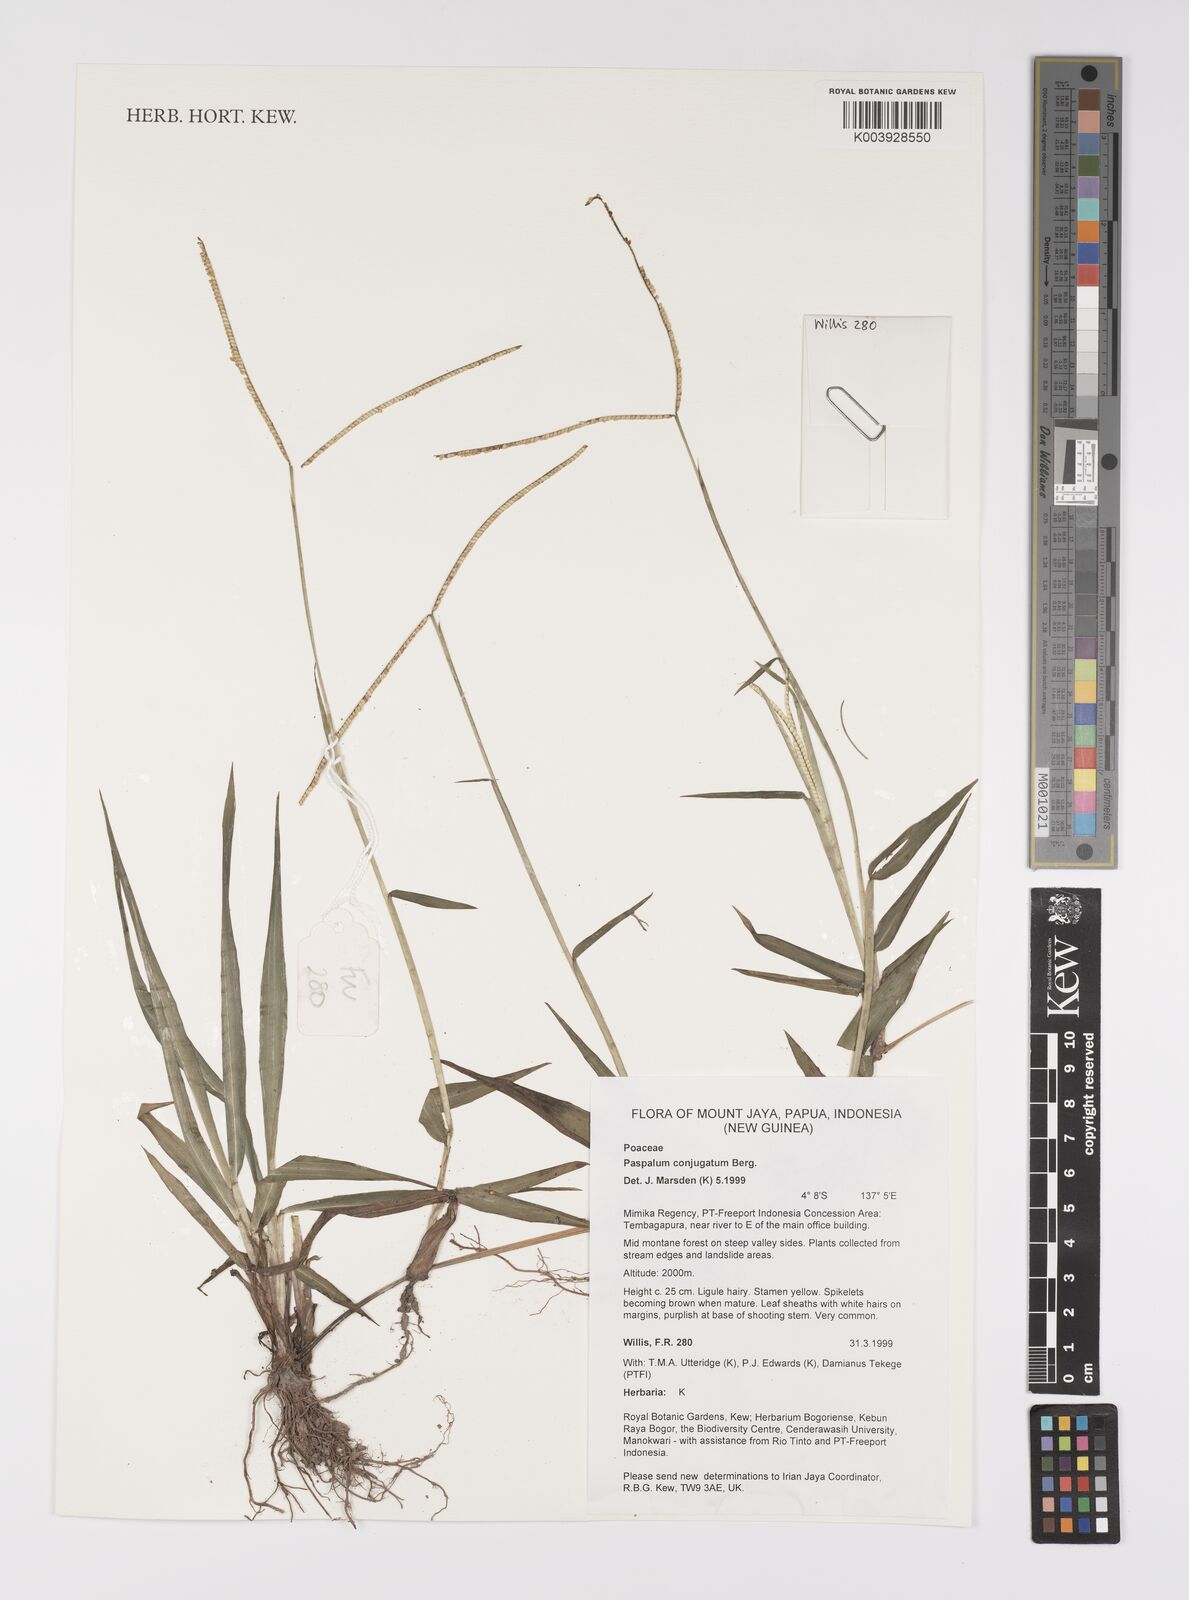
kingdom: Plantae
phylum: Tracheophyta
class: Liliopsida
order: Poales
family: Poaceae
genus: Paspalum
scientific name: Paspalum conjugatum
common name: Hilograss
